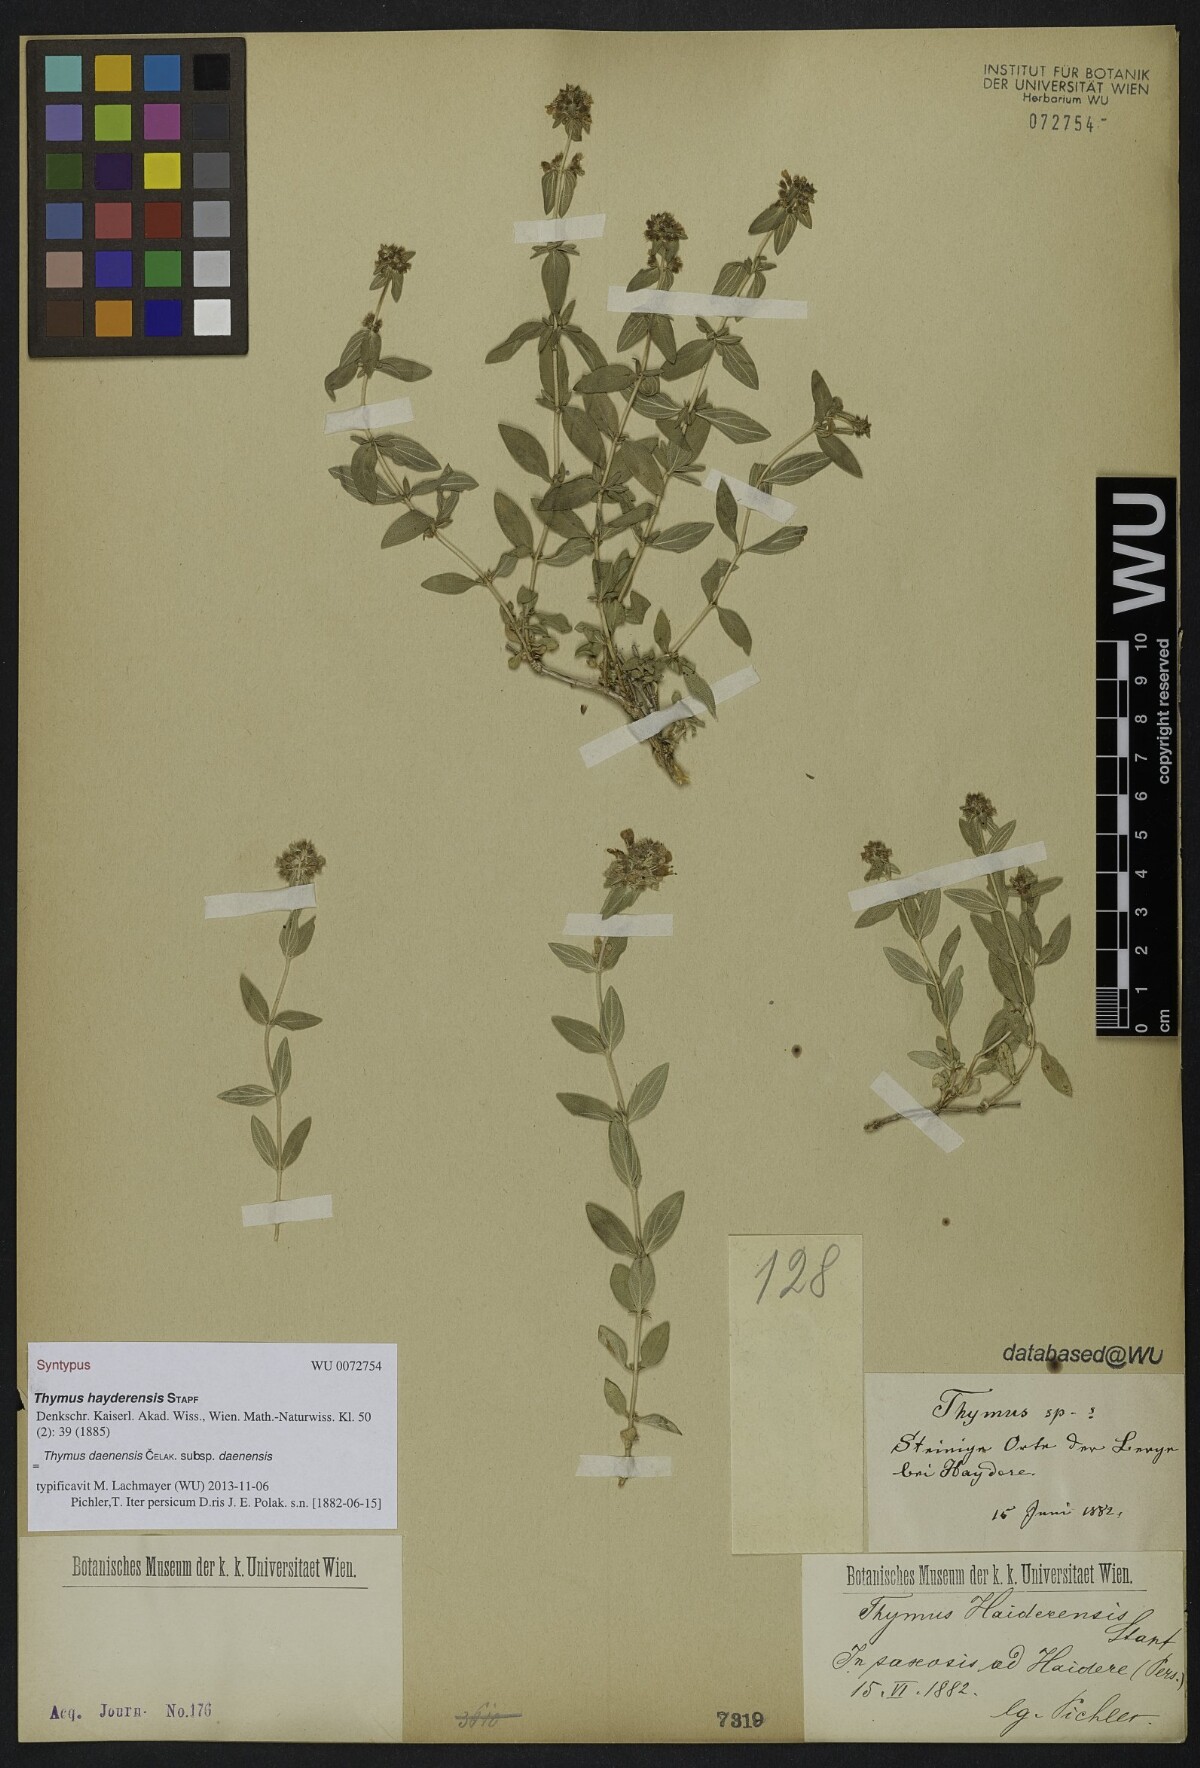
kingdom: Plantae
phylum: Tracheophyta
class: Magnoliopsida
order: Lamiales
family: Lamiaceae
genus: Thymus
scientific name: Thymus daenensis
